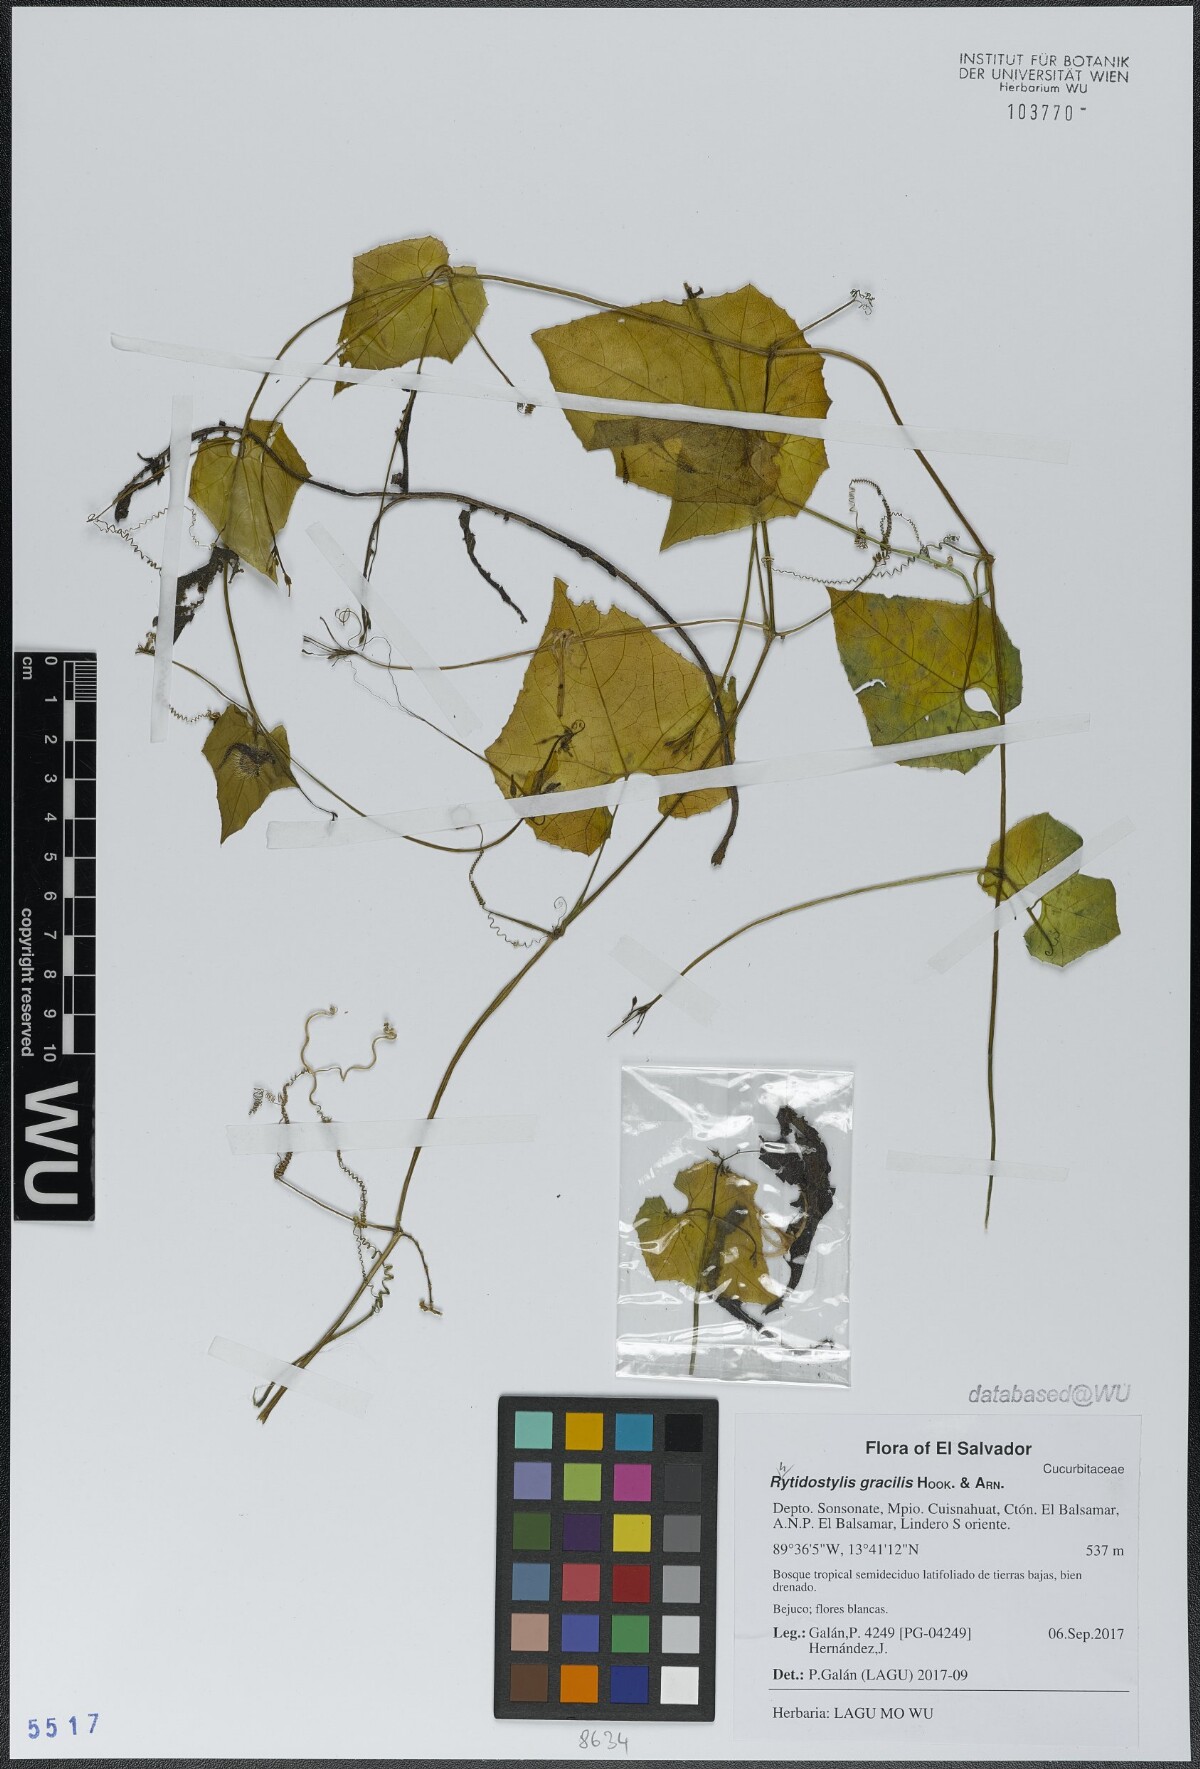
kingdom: Plantae
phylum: Tracheophyta
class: Magnoliopsida
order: Cucurbitales
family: Cucurbitaceae
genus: Cyclanthera
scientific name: Cyclanthera filiformis
